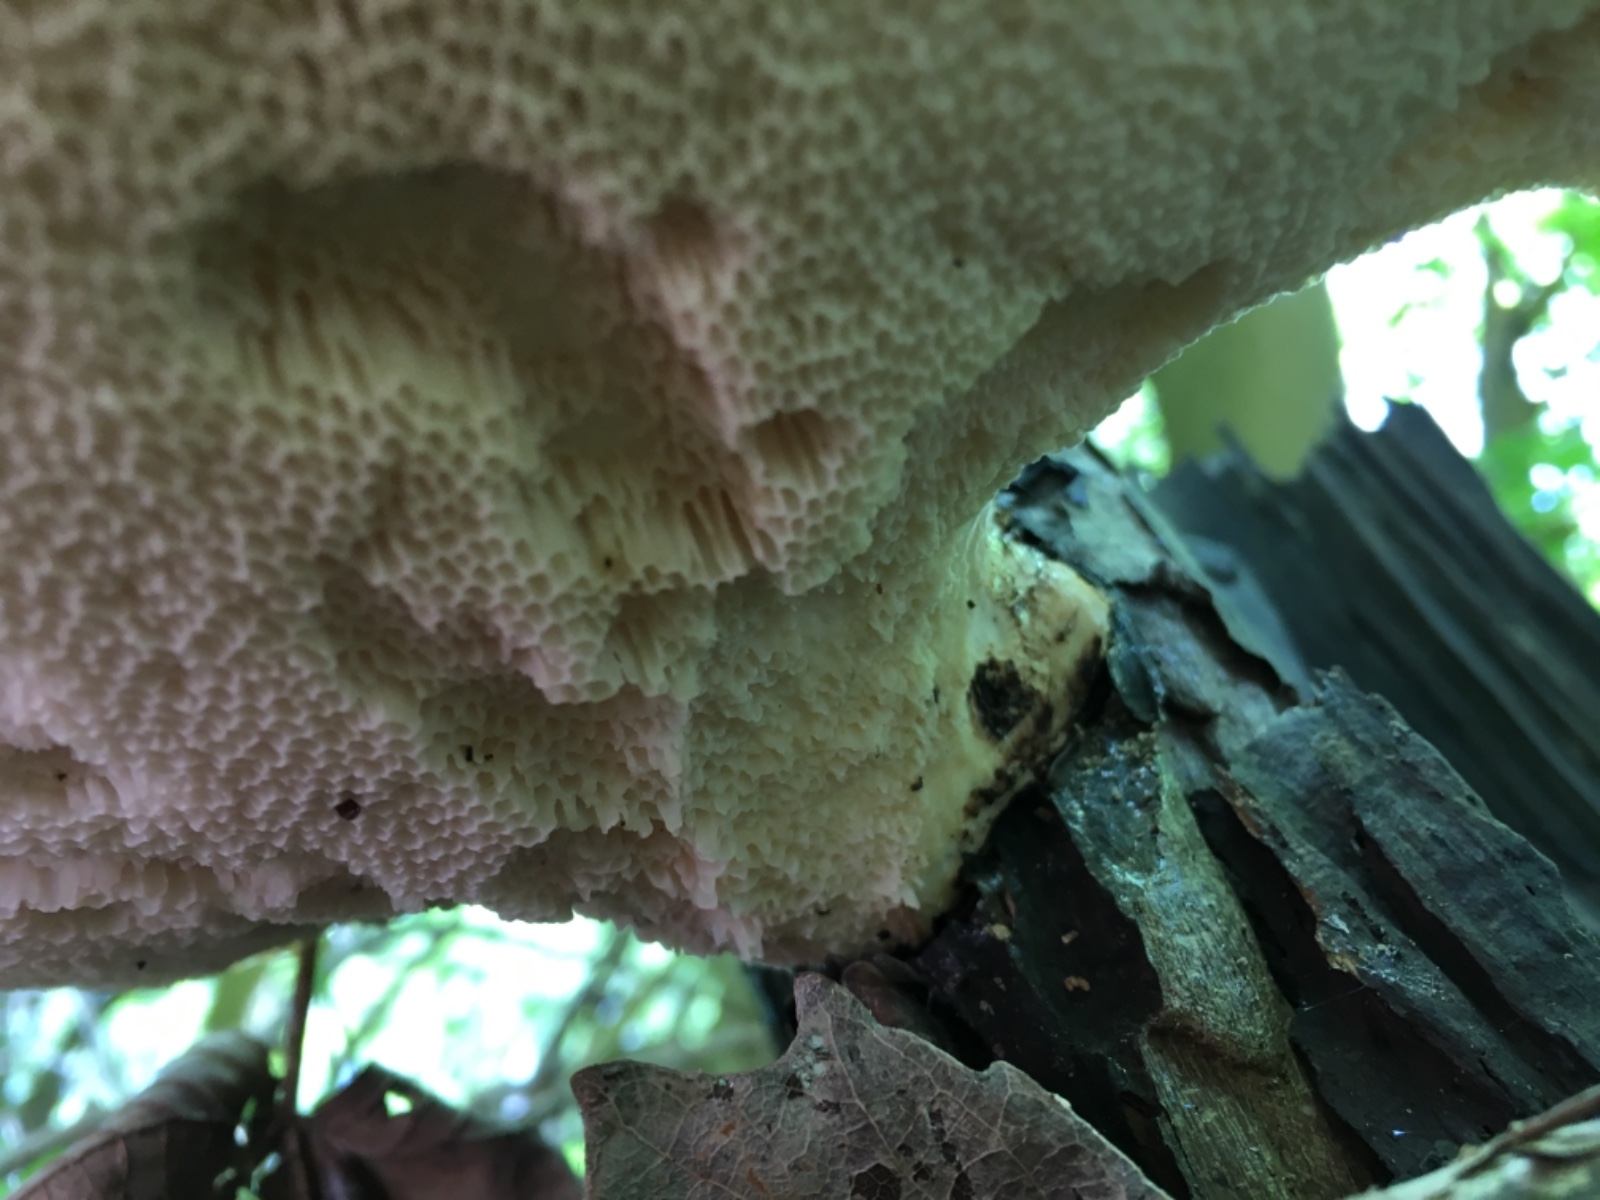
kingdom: Fungi
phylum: Basidiomycota
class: Agaricomycetes
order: Polyporales
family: Polyporaceae
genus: Cerioporus
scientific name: Cerioporus squamosus
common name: skællet stilkporesvamp
